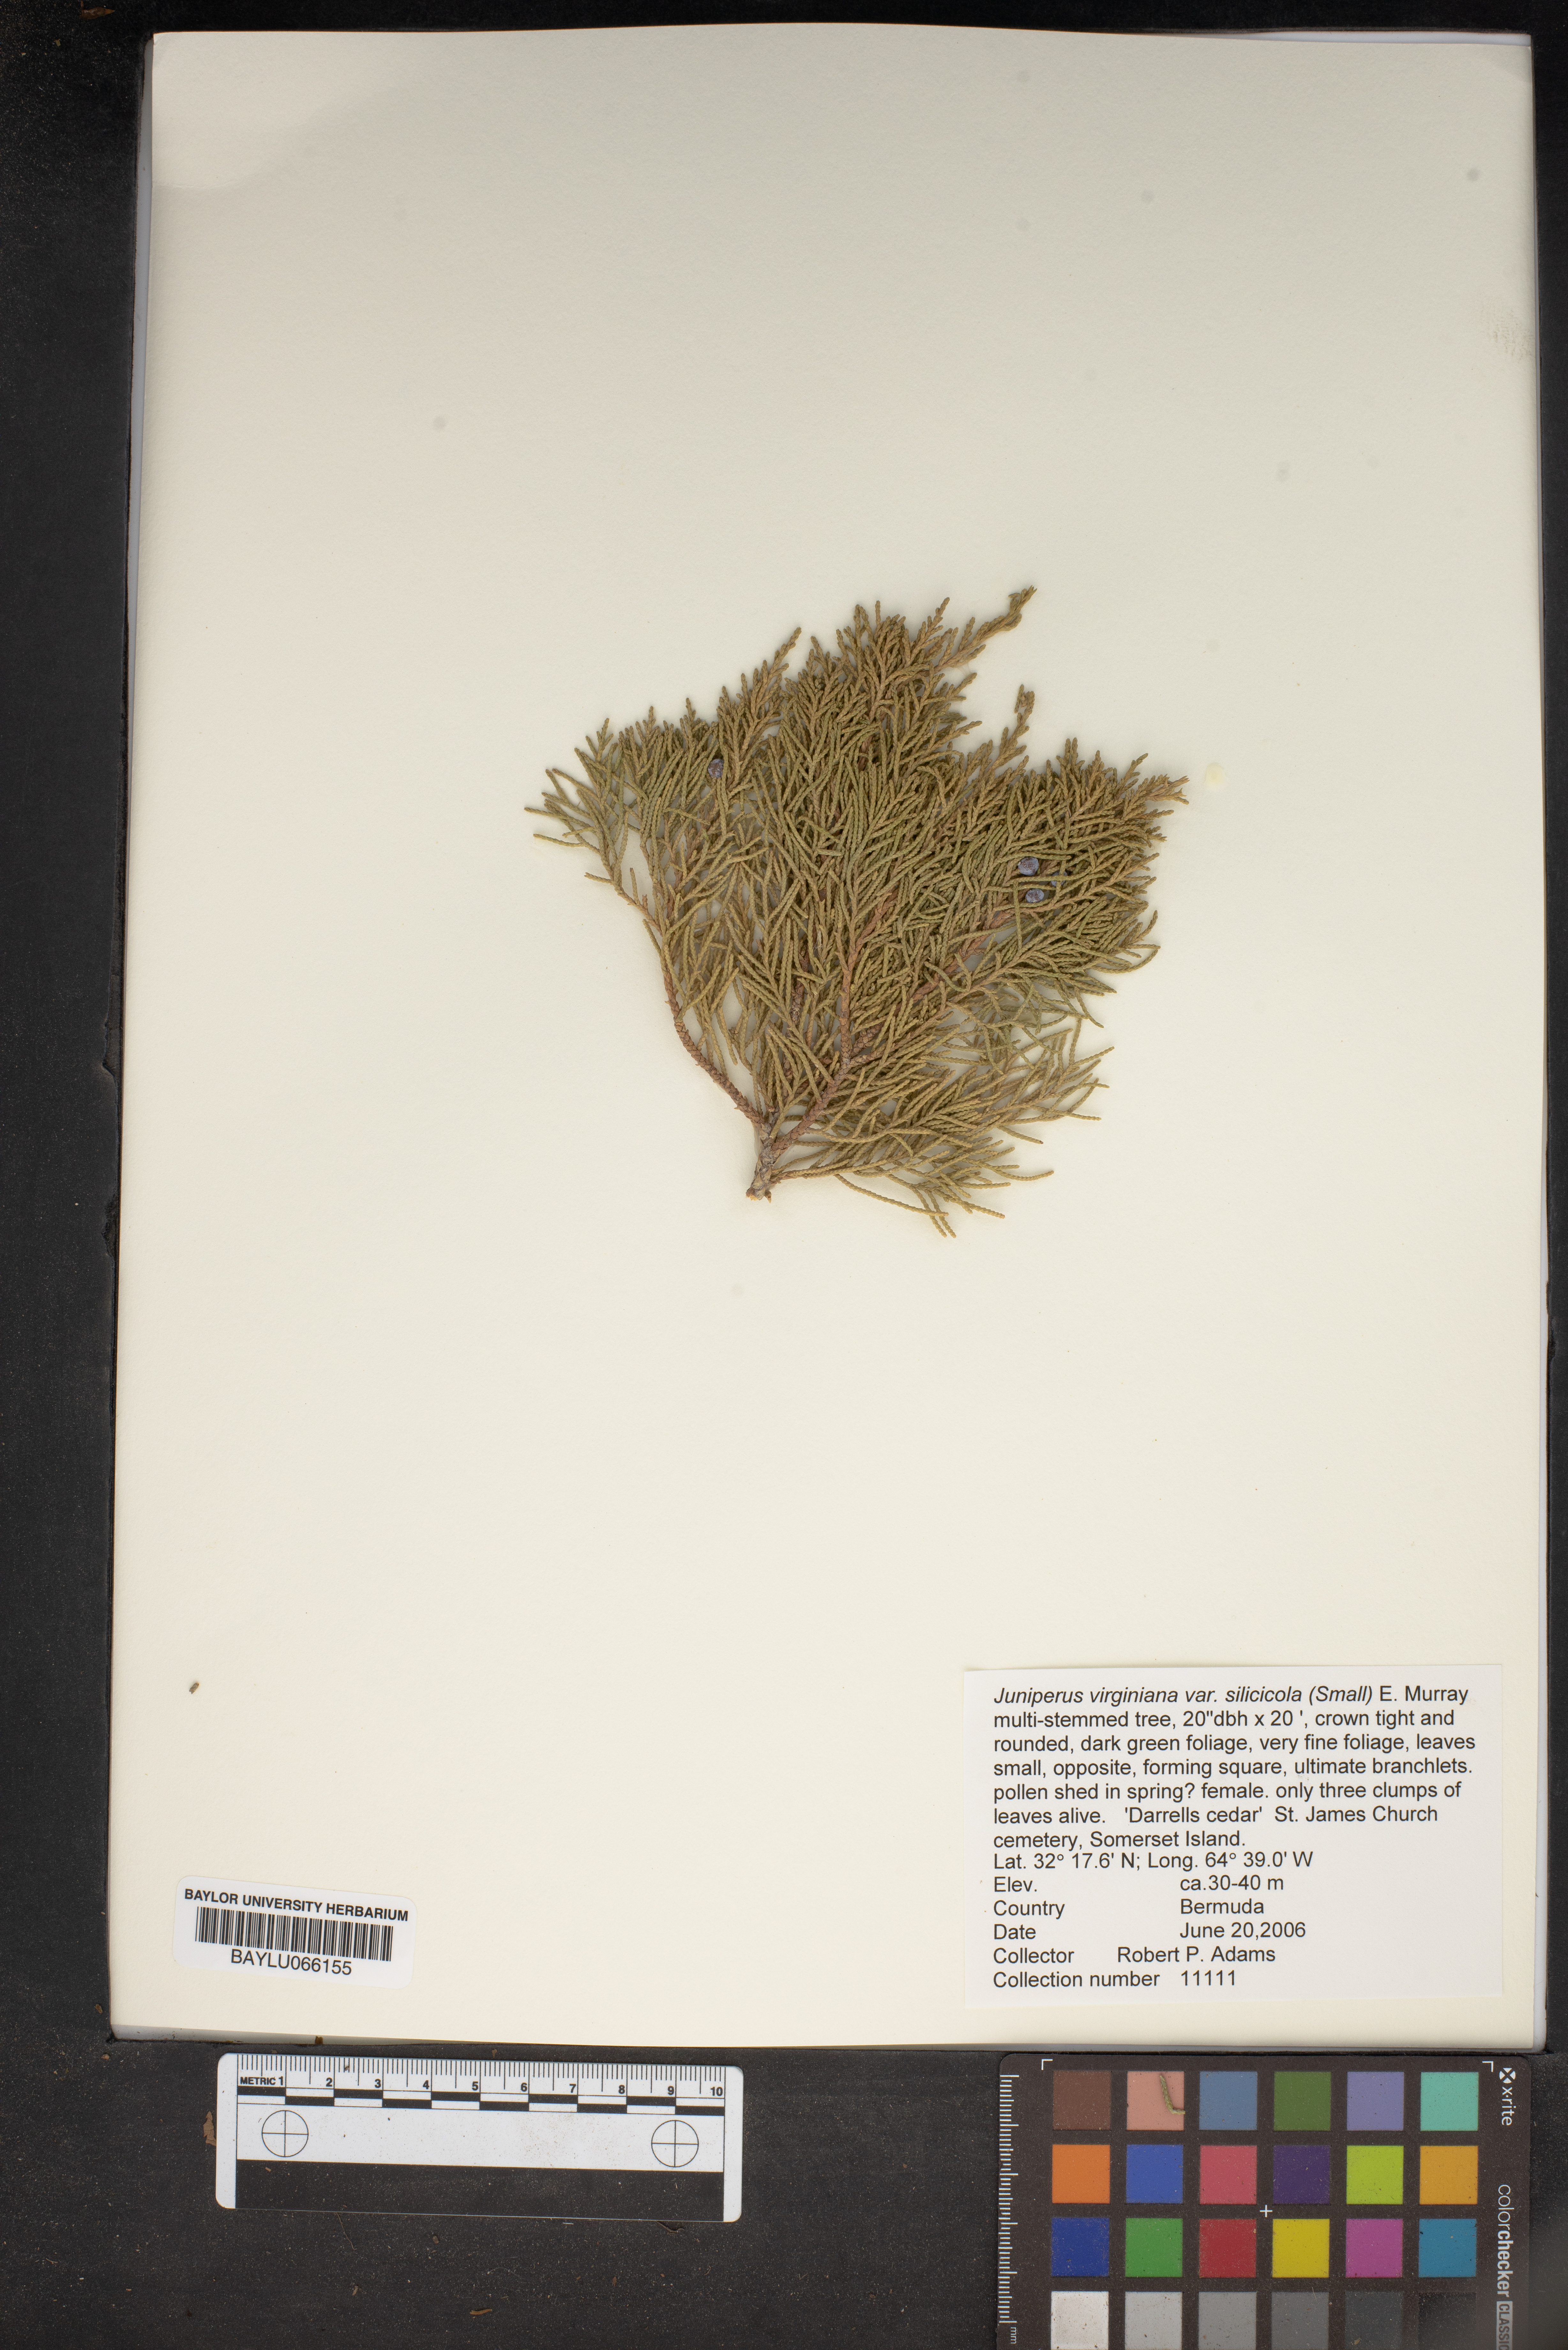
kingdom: Plantae
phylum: Tracheophyta
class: Pinopsida
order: Pinales
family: Cupressaceae
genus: Juniperus
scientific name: Juniperus virginiana
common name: Red juniper
